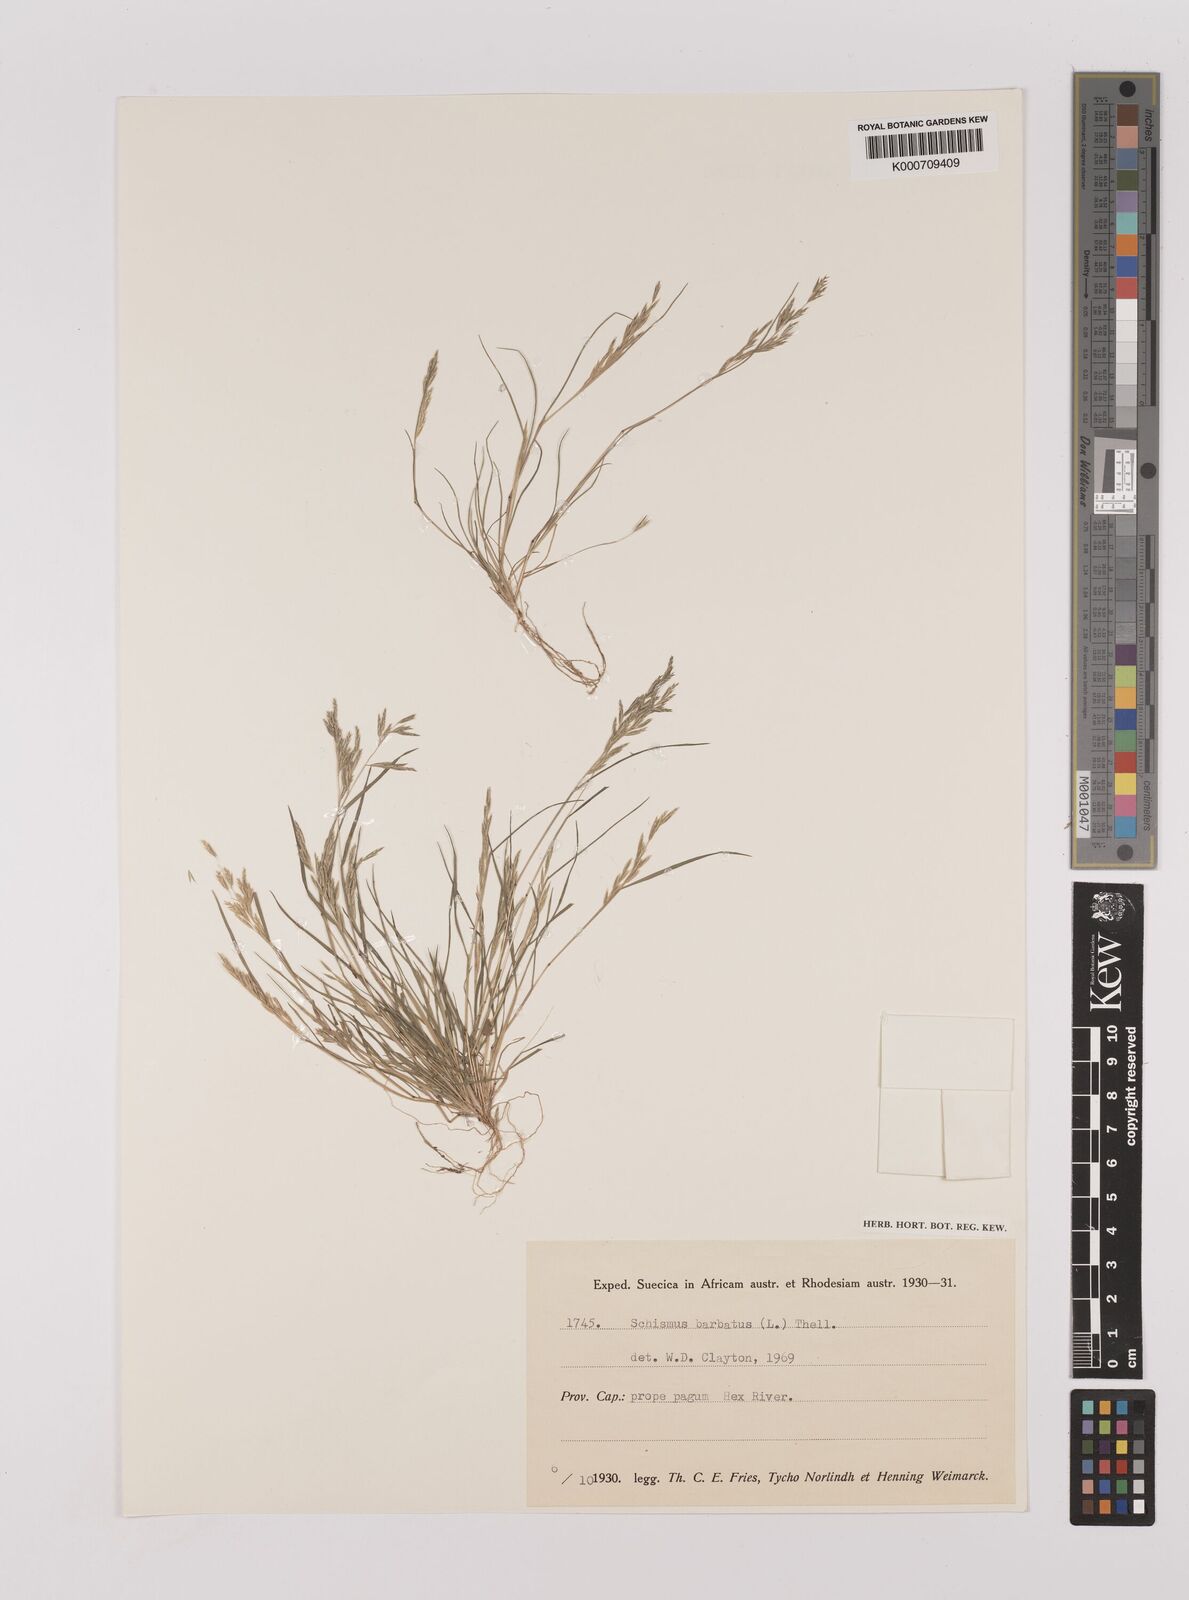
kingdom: Plantae
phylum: Tracheophyta
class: Liliopsida
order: Poales
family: Poaceae
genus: Schismus
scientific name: Schismus barbatus
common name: Kelch-grass
